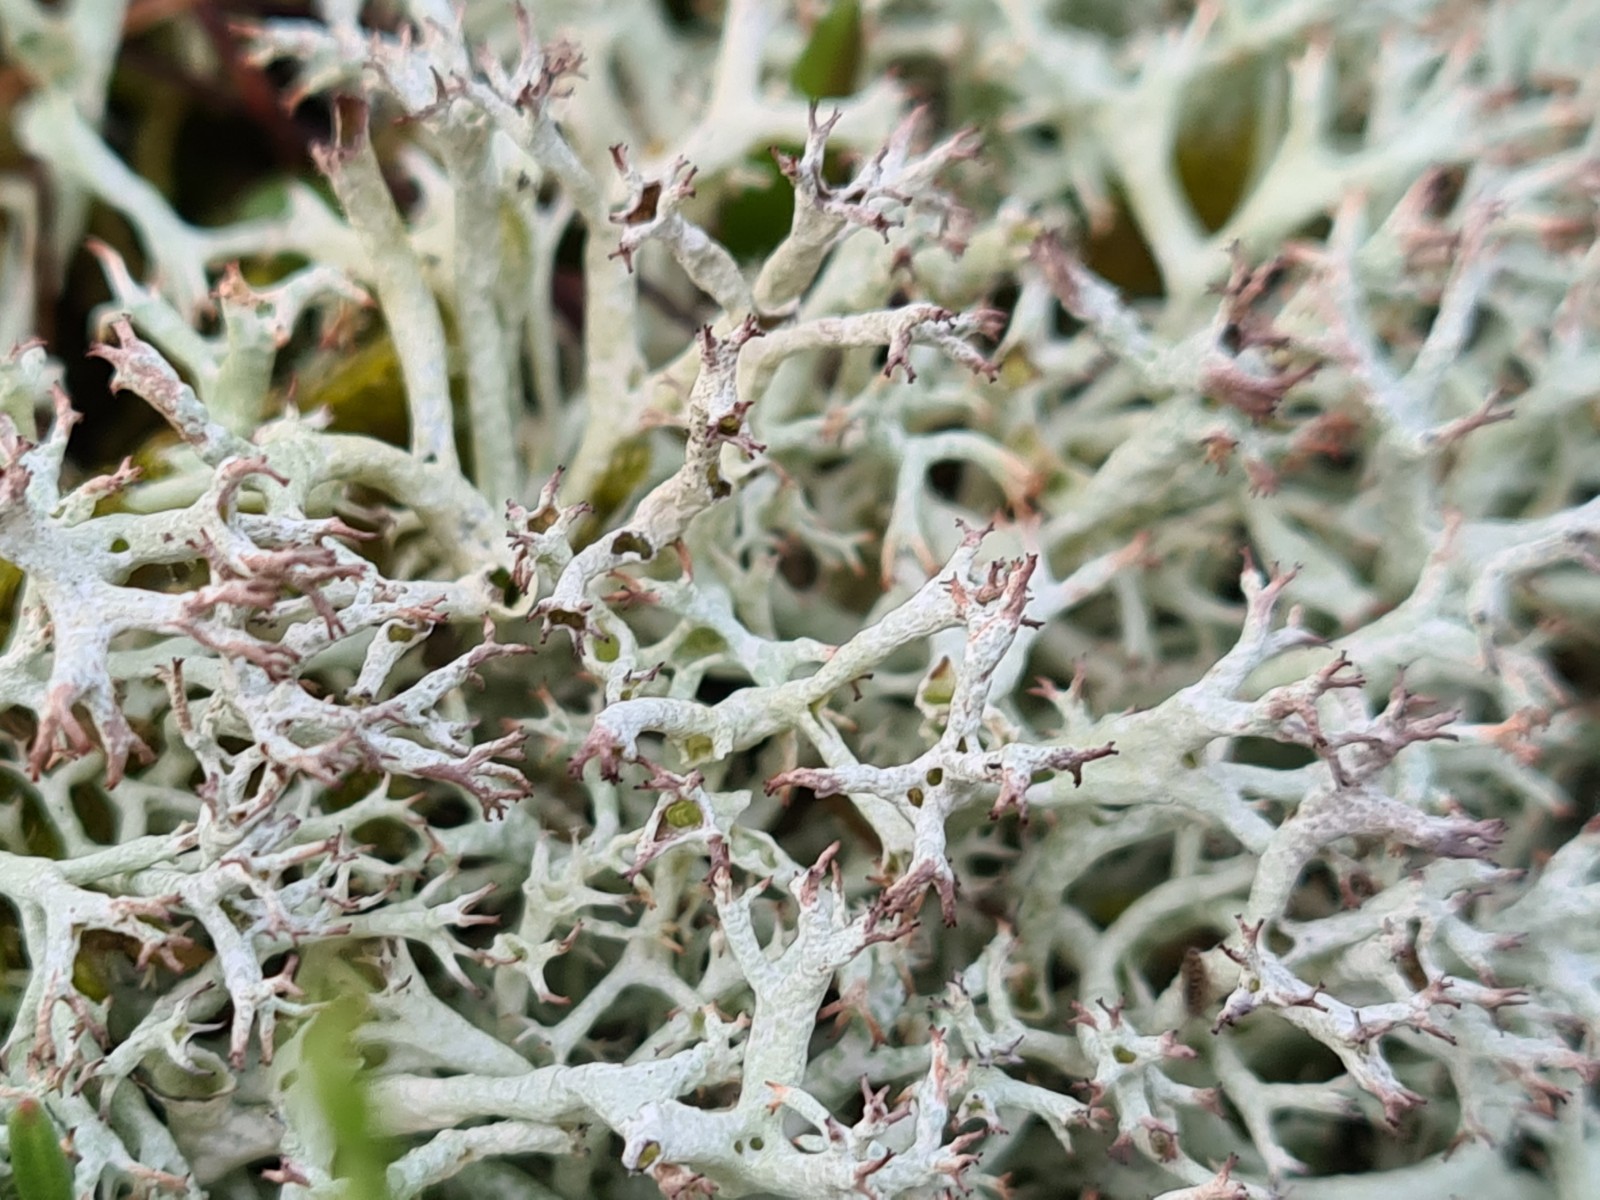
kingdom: Fungi
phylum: Ascomycota
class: Lecanoromycetes
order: Lecanorales
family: Cladoniaceae
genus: Cladonia
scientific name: Cladonia portentosa
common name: hede-rensdyrlav
